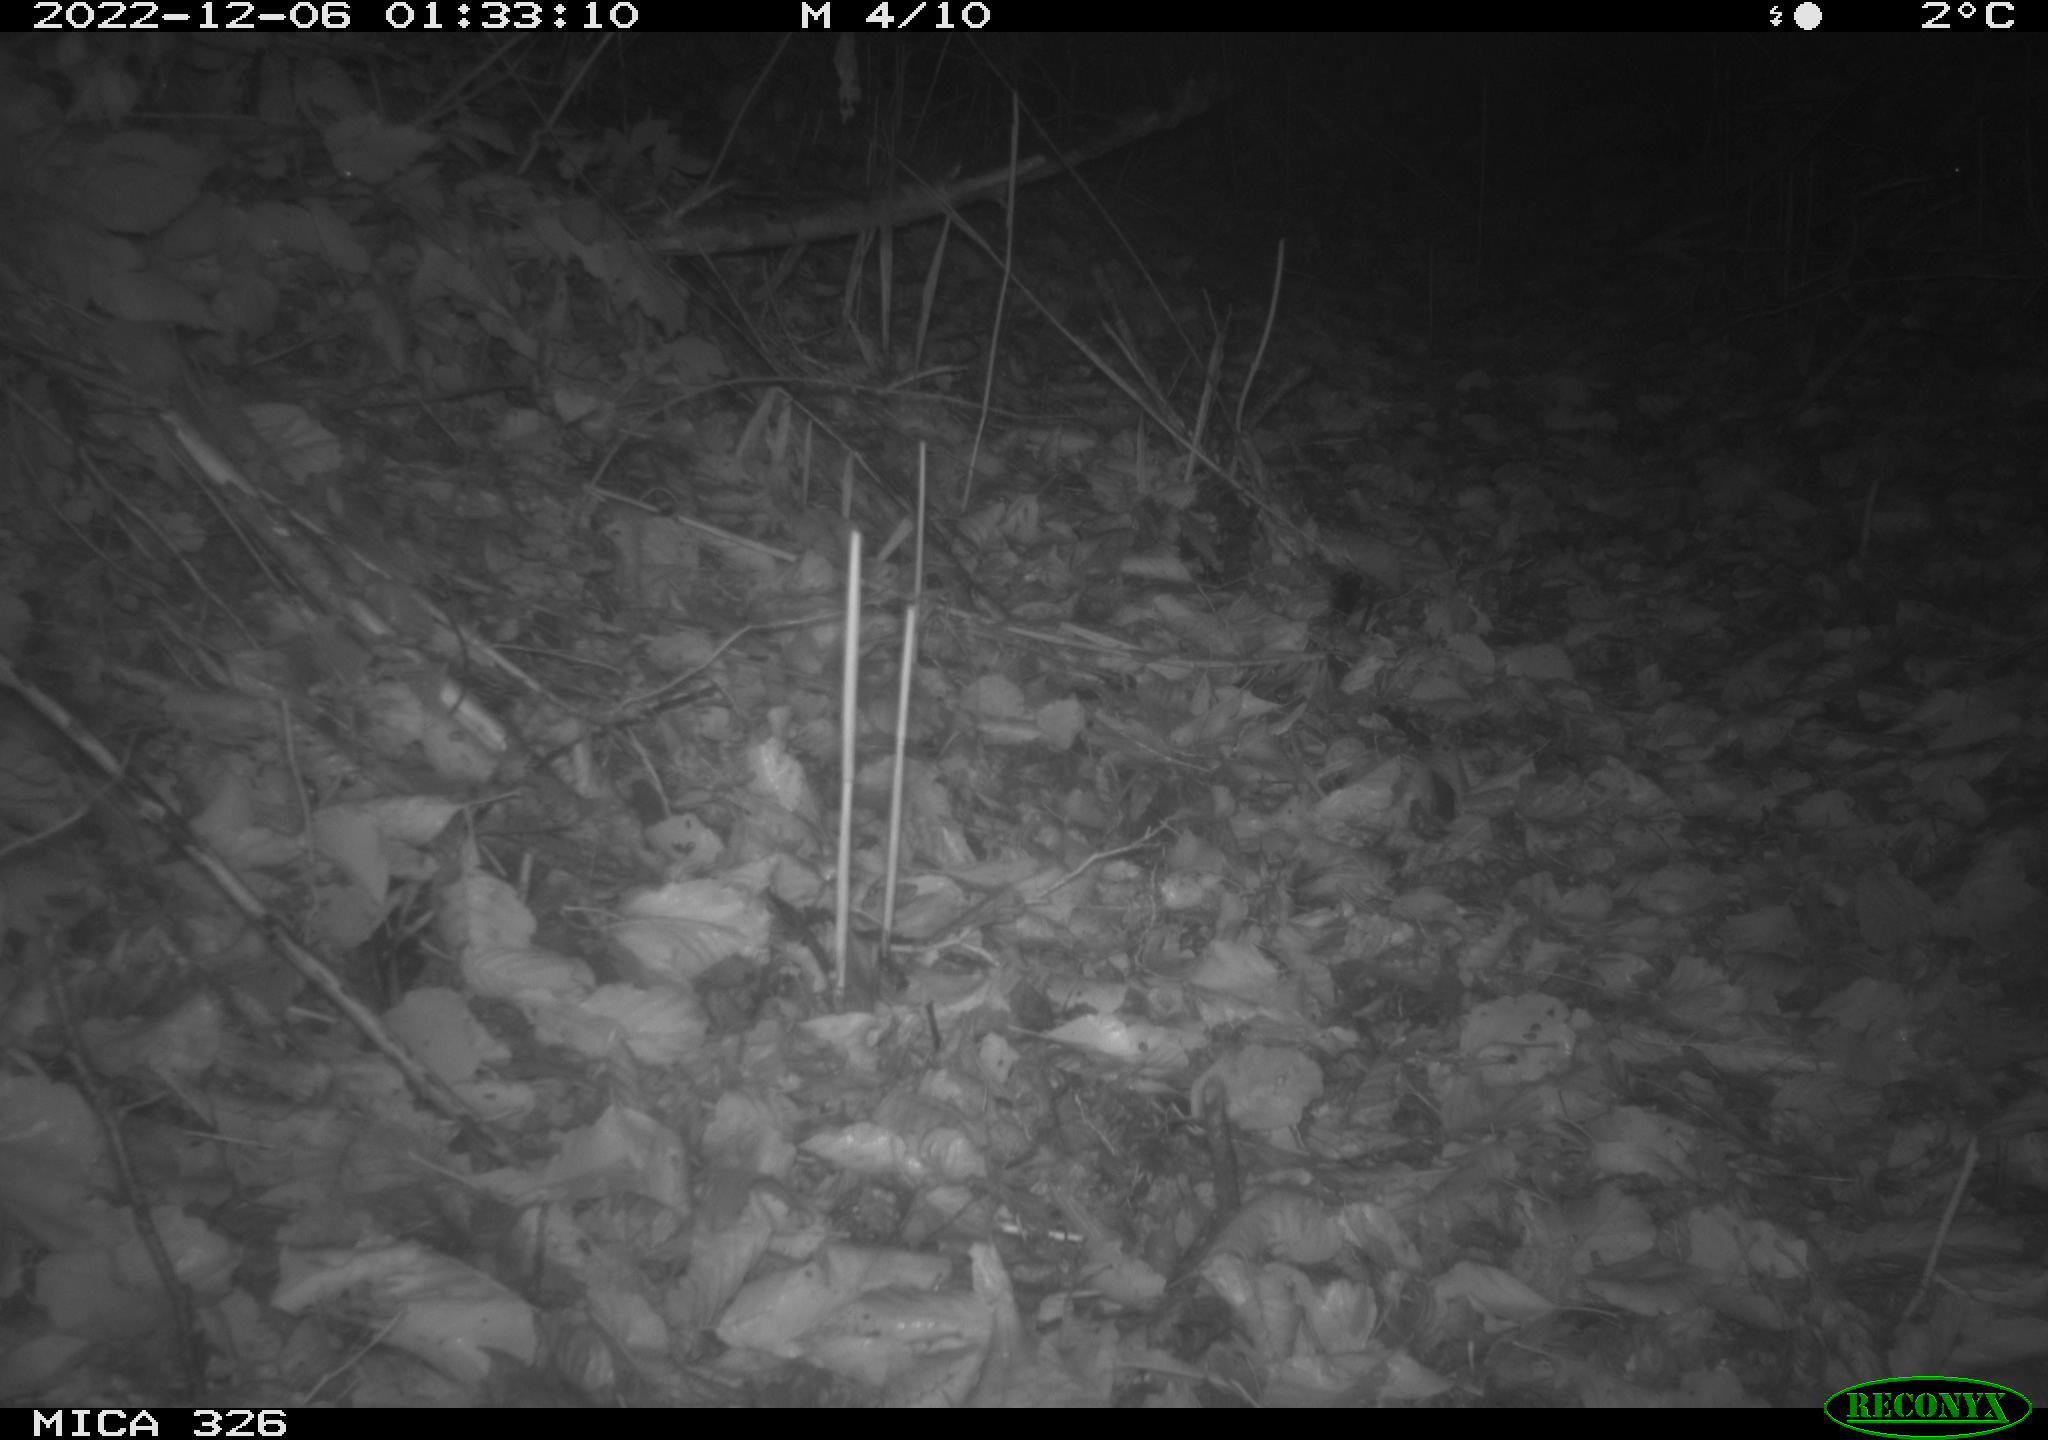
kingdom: Animalia
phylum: Chordata
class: Mammalia
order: Rodentia
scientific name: Rodentia
